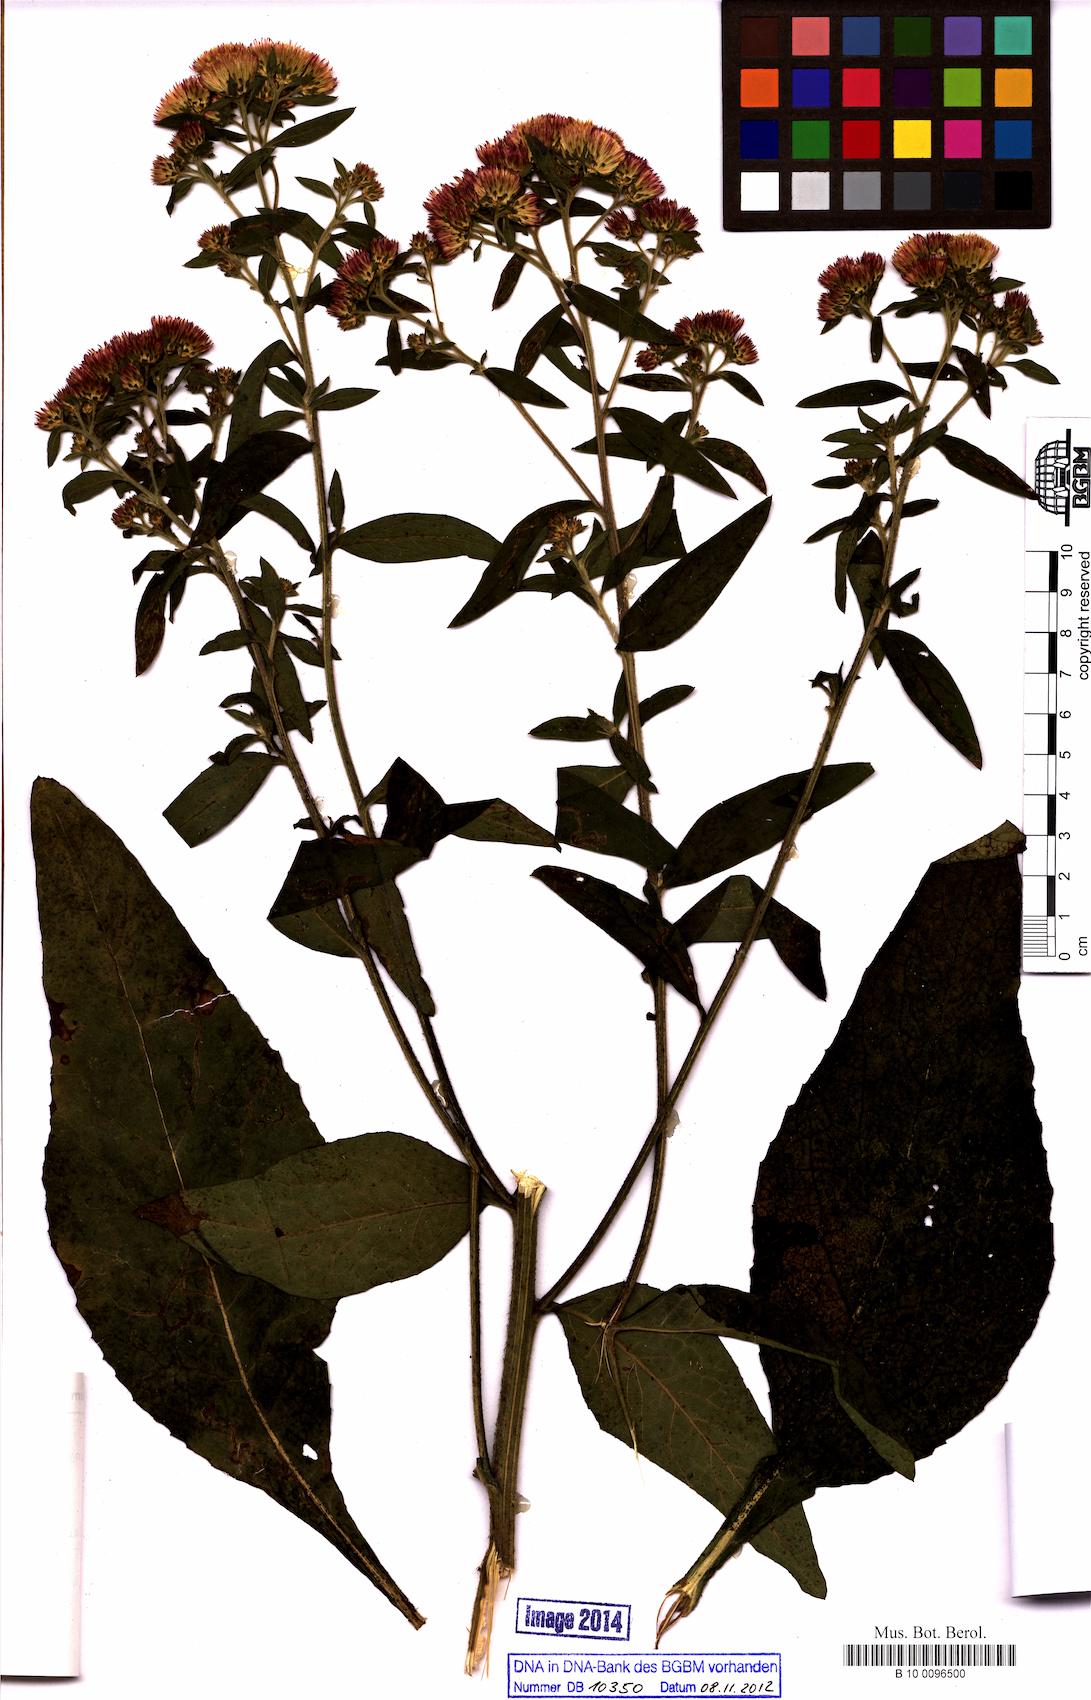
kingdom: Plantae
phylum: Tracheophyta
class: Magnoliopsida
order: Asterales
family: Asteraceae
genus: Pentanema
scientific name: Pentanema squarrosum
